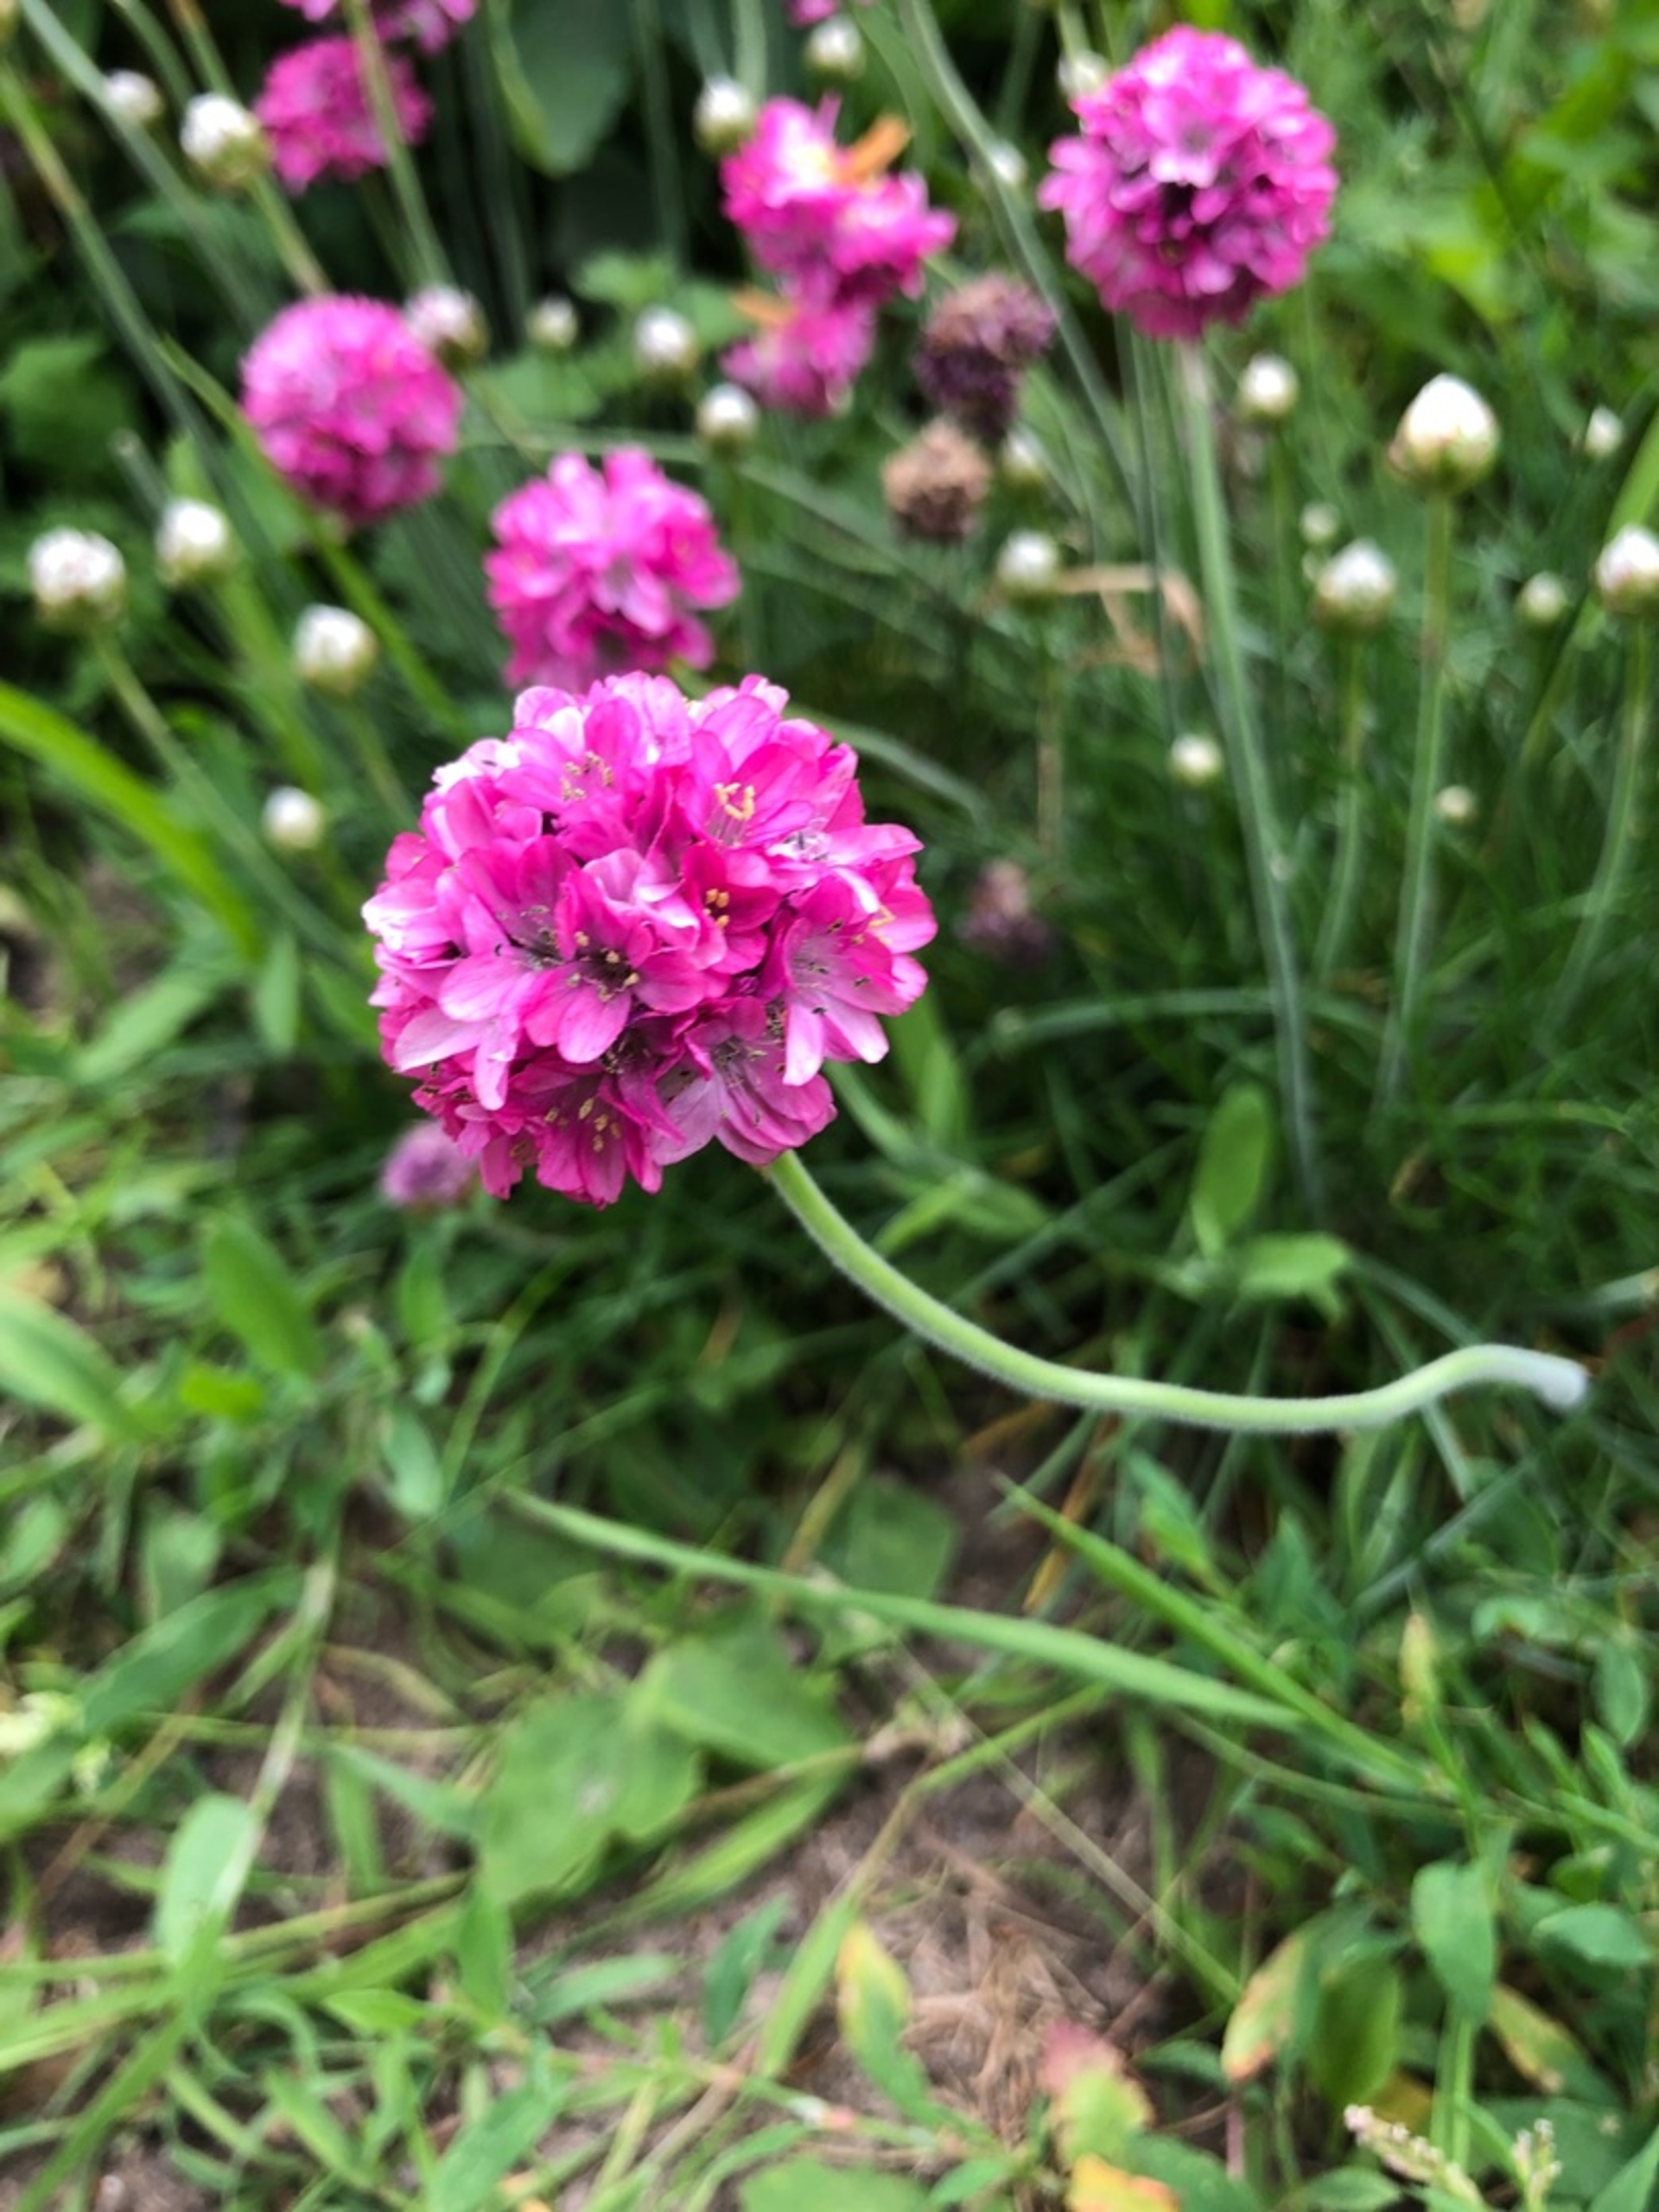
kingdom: Plantae
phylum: Tracheophyta
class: Magnoliopsida
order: Caryophyllales
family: Plumbaginaceae
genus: Armeria
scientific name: Armeria maritima
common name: Engelskgræs
